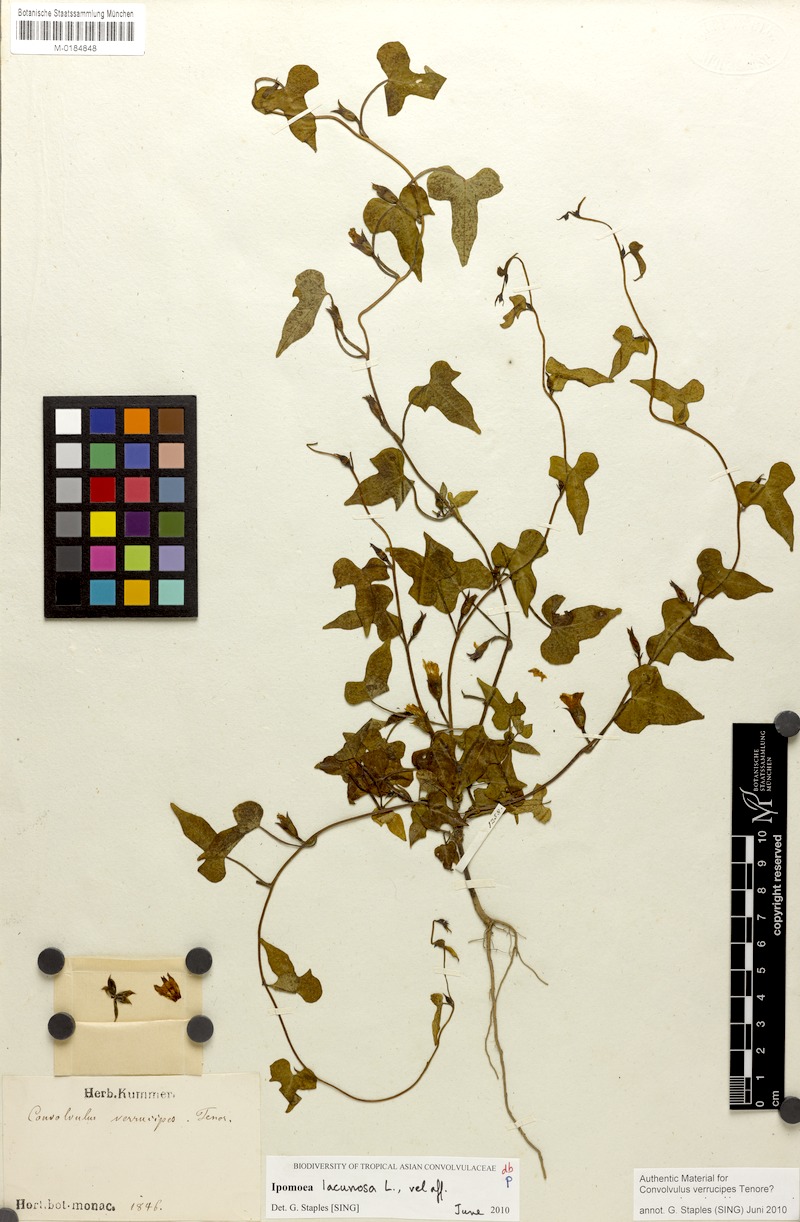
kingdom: Plantae
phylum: Tracheophyta
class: Magnoliopsida
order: Solanales
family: Convolvulaceae
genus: Ipomoea
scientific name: Ipomoea lacunosa
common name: White morning-glory
